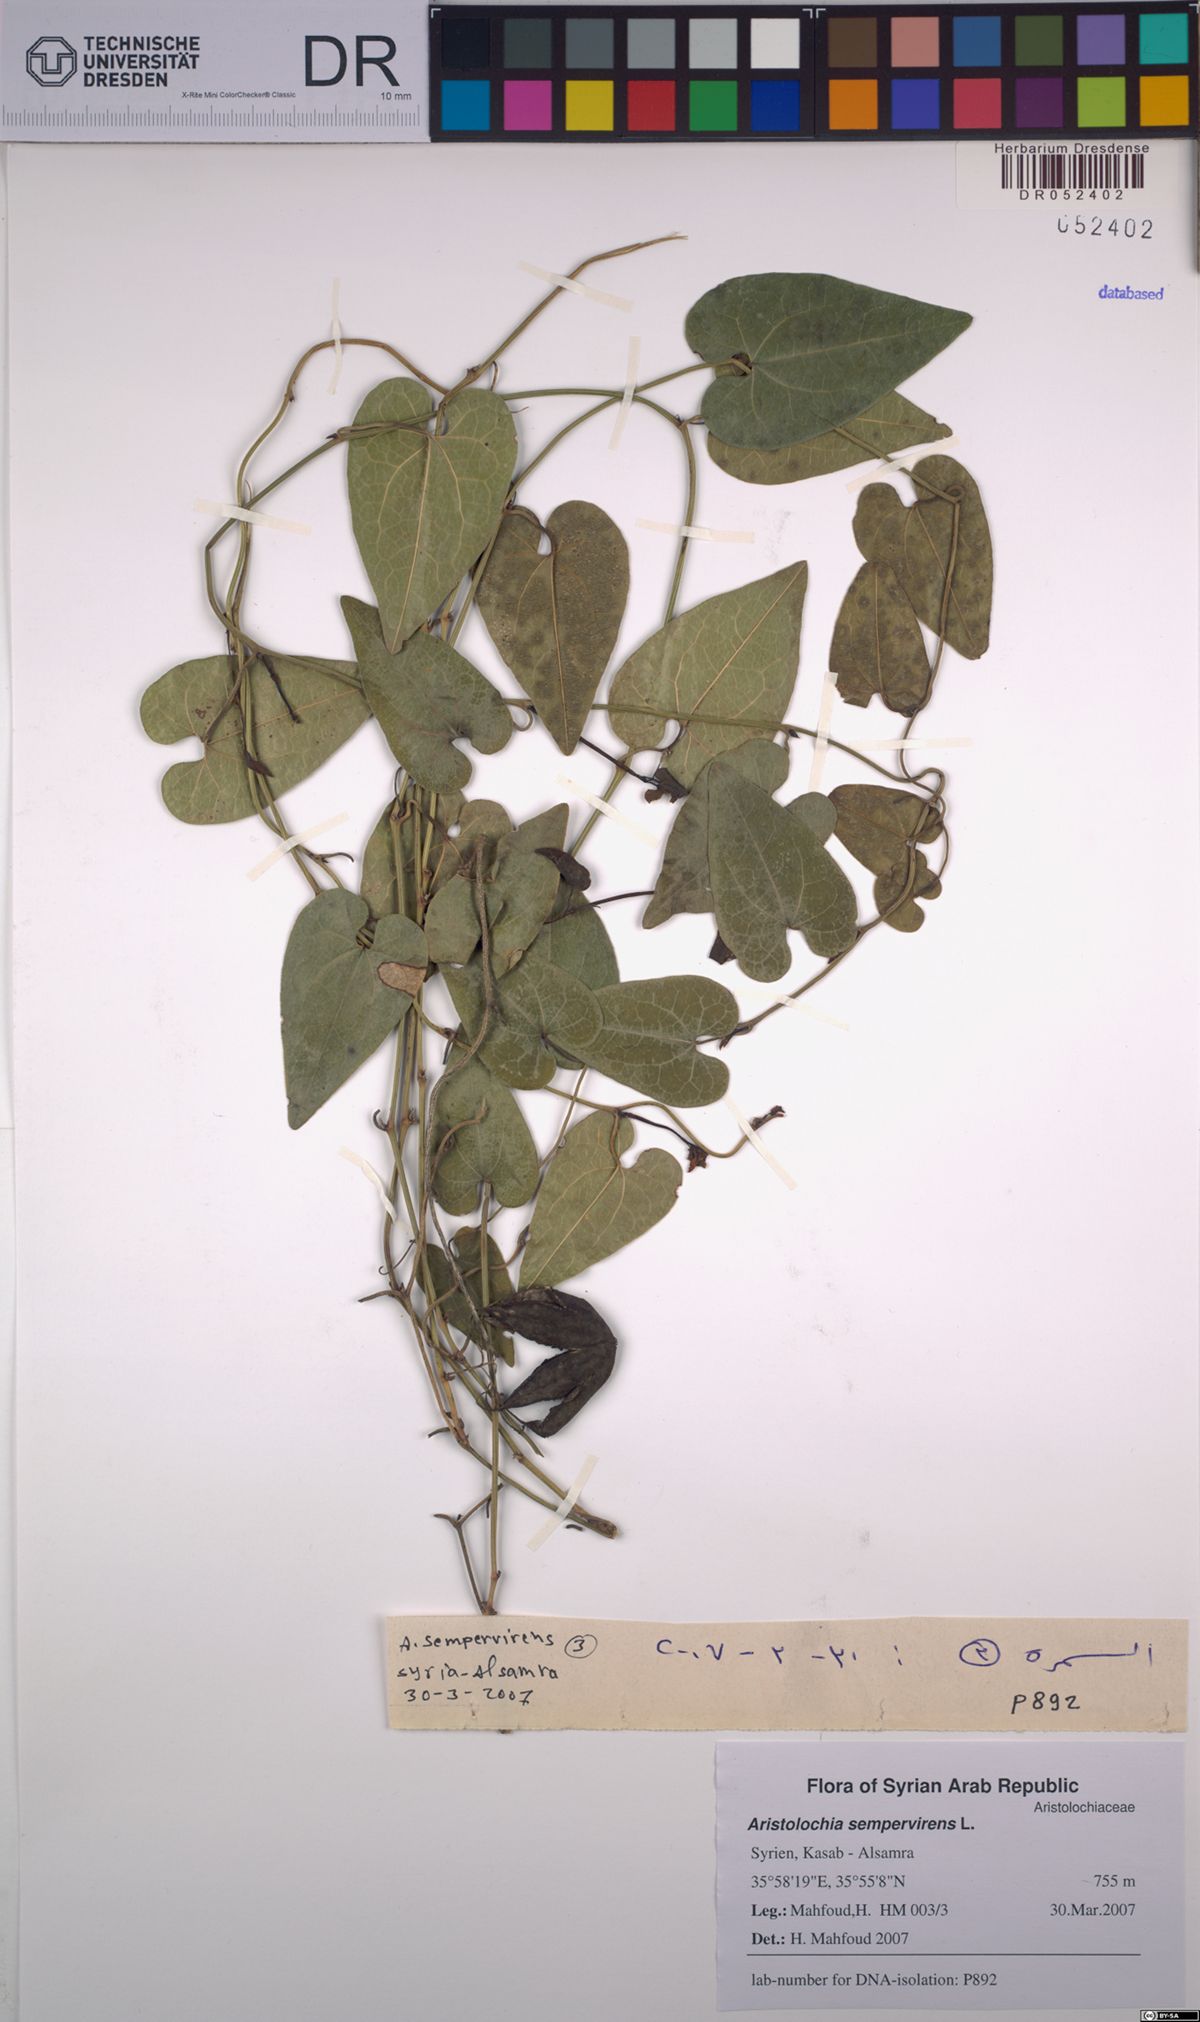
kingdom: Plantae
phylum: Tracheophyta
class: Magnoliopsida
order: Piperales
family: Aristolochiaceae
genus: Aristolochia
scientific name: Aristolochia sempervirens
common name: Long birthwort
